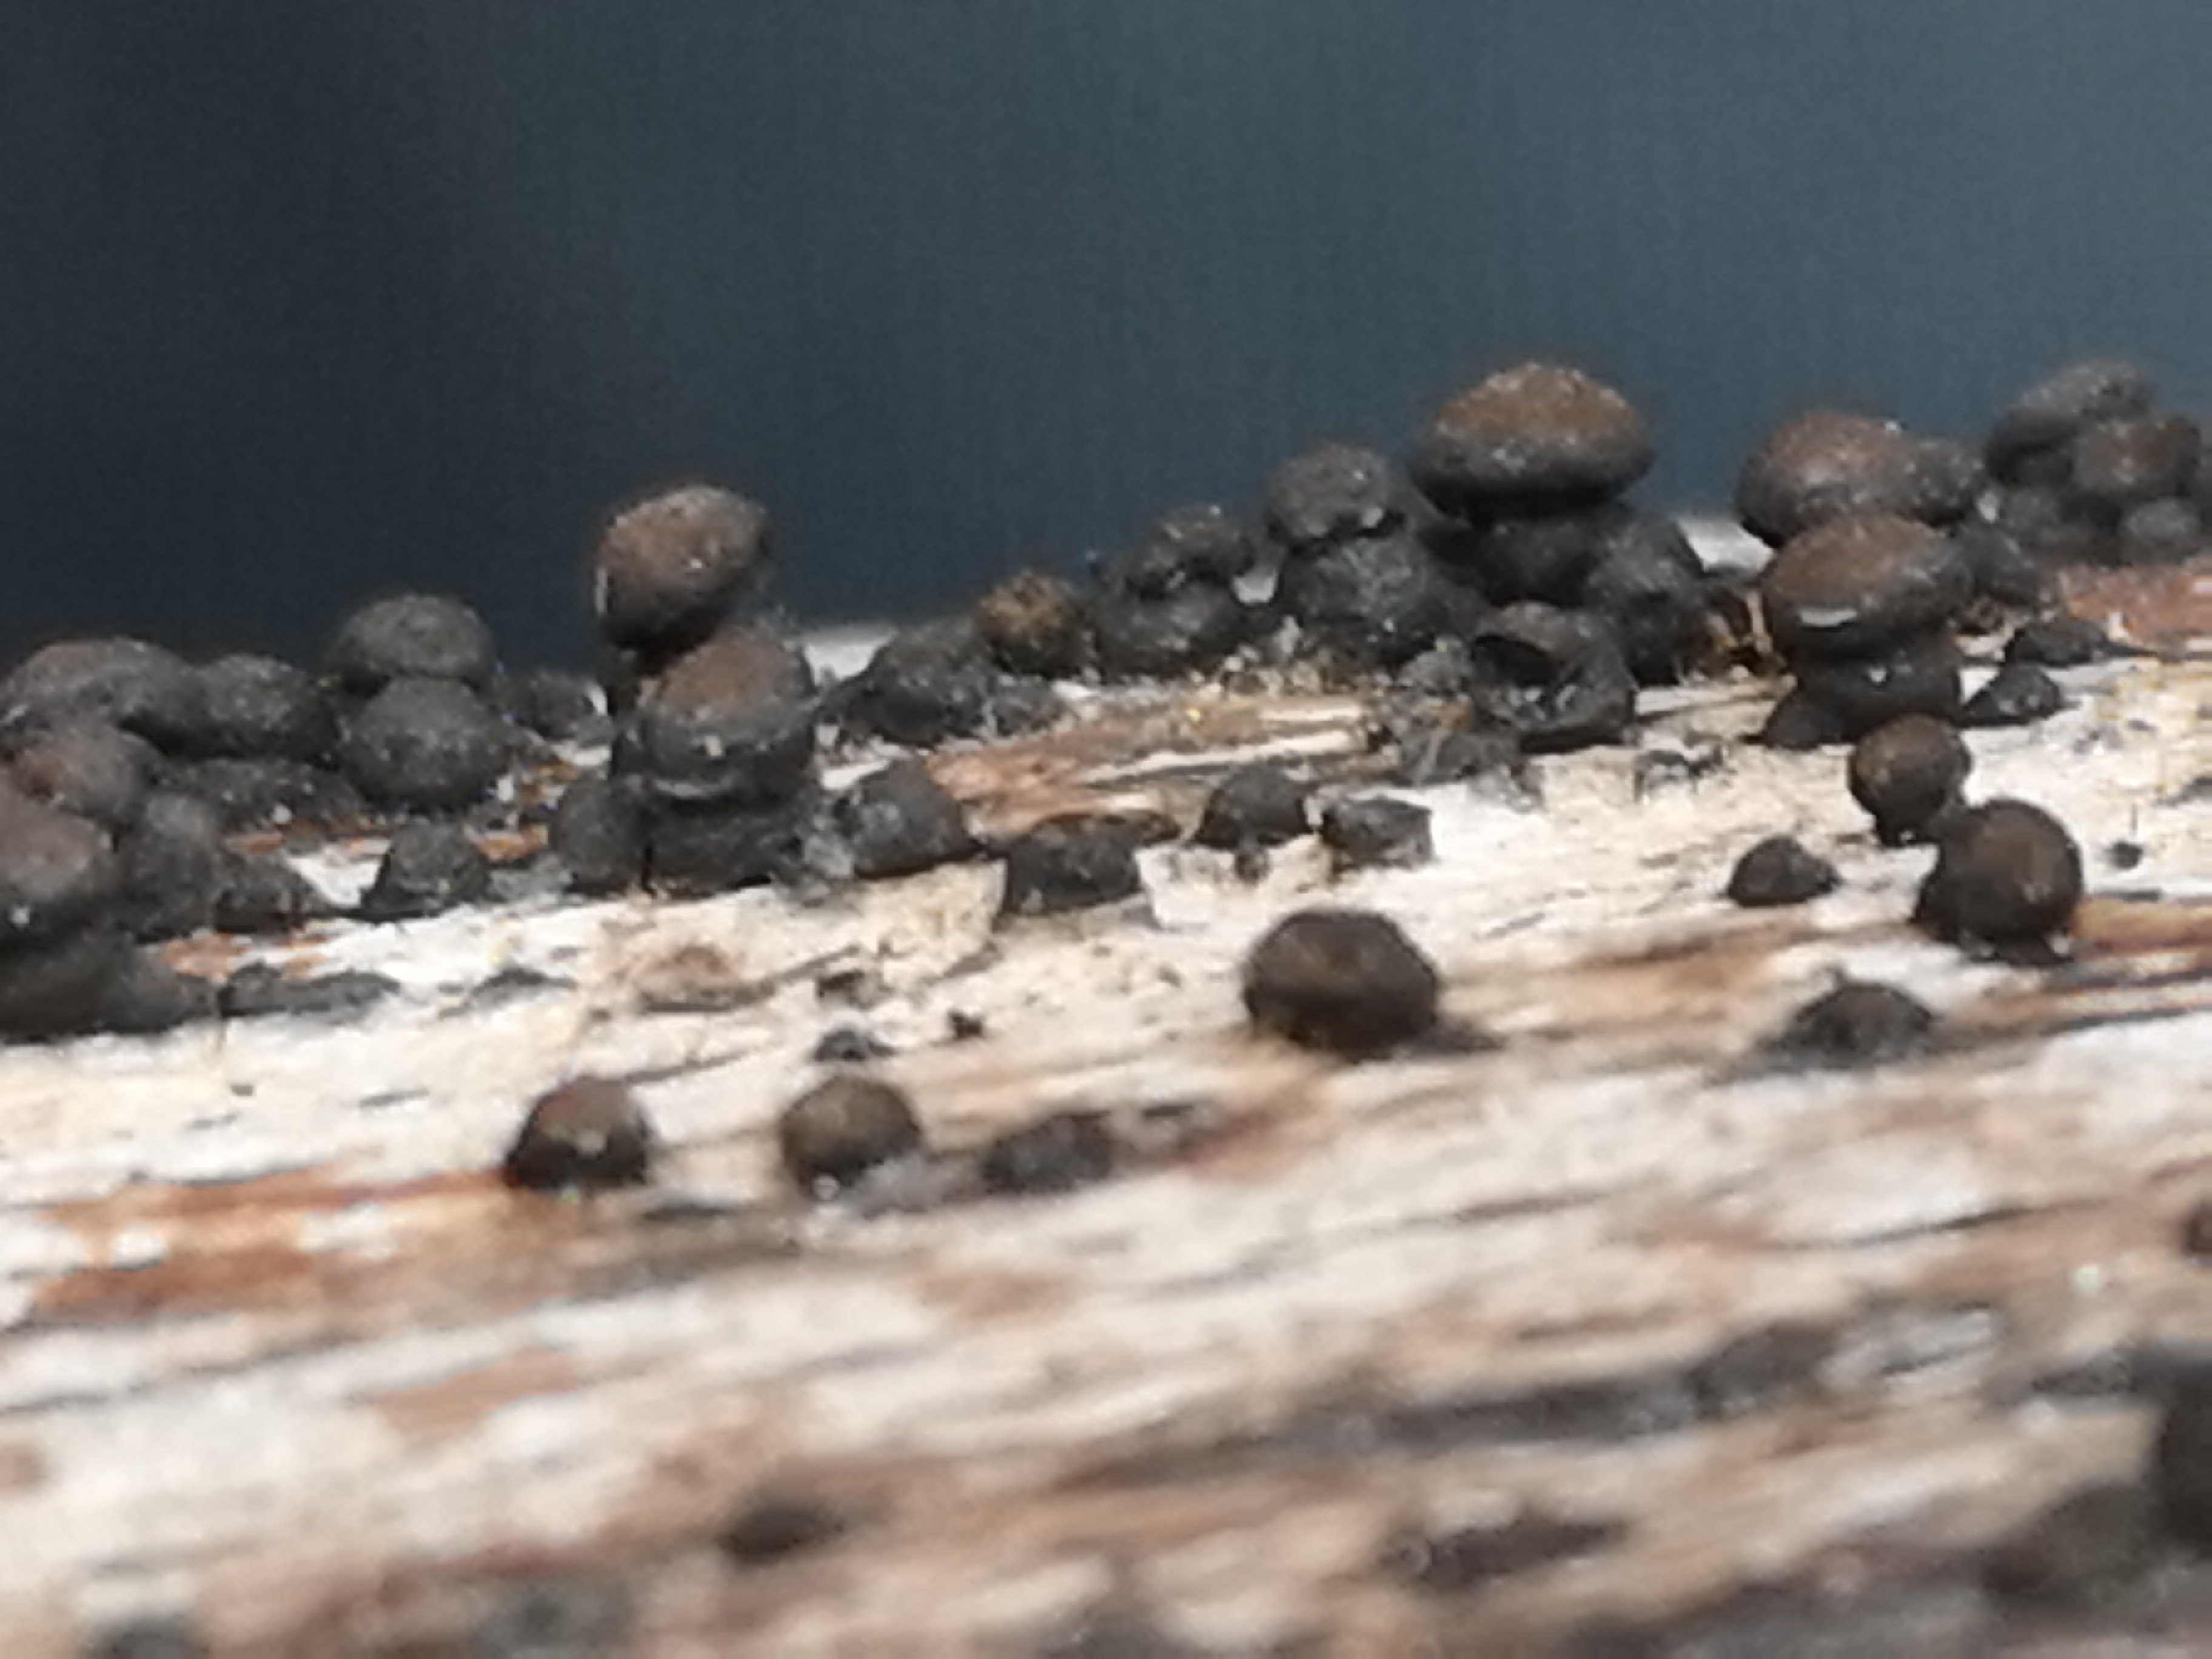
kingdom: Fungi
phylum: Ascomycota
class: Sordariomycetes
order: Xylariales
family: Hypoxylaceae
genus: Jackrogersella
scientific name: Jackrogersella cohaerens
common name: sammenflydende kulbær
